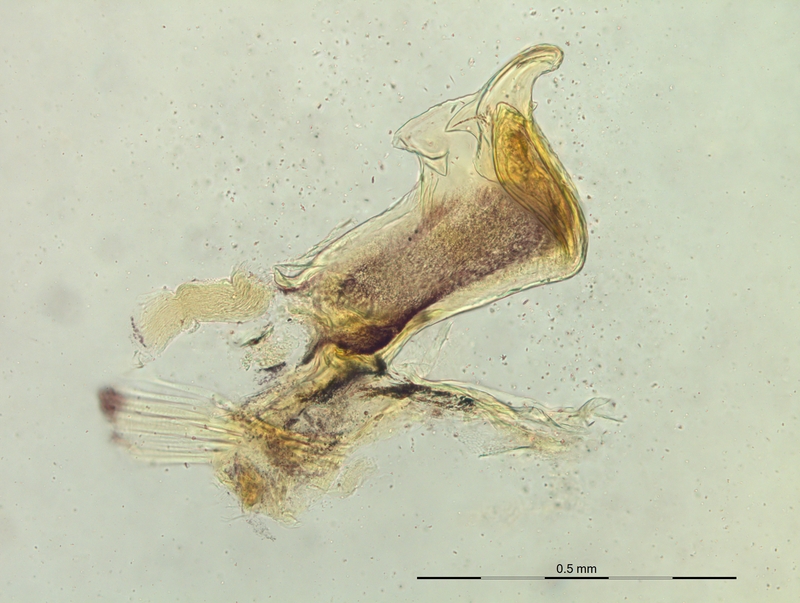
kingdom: Animalia
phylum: Arthropoda
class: Diplopoda
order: Chordeumatida
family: Craspedosomatidae
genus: Craspedosoma
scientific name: Craspedosoma rawlinsii
